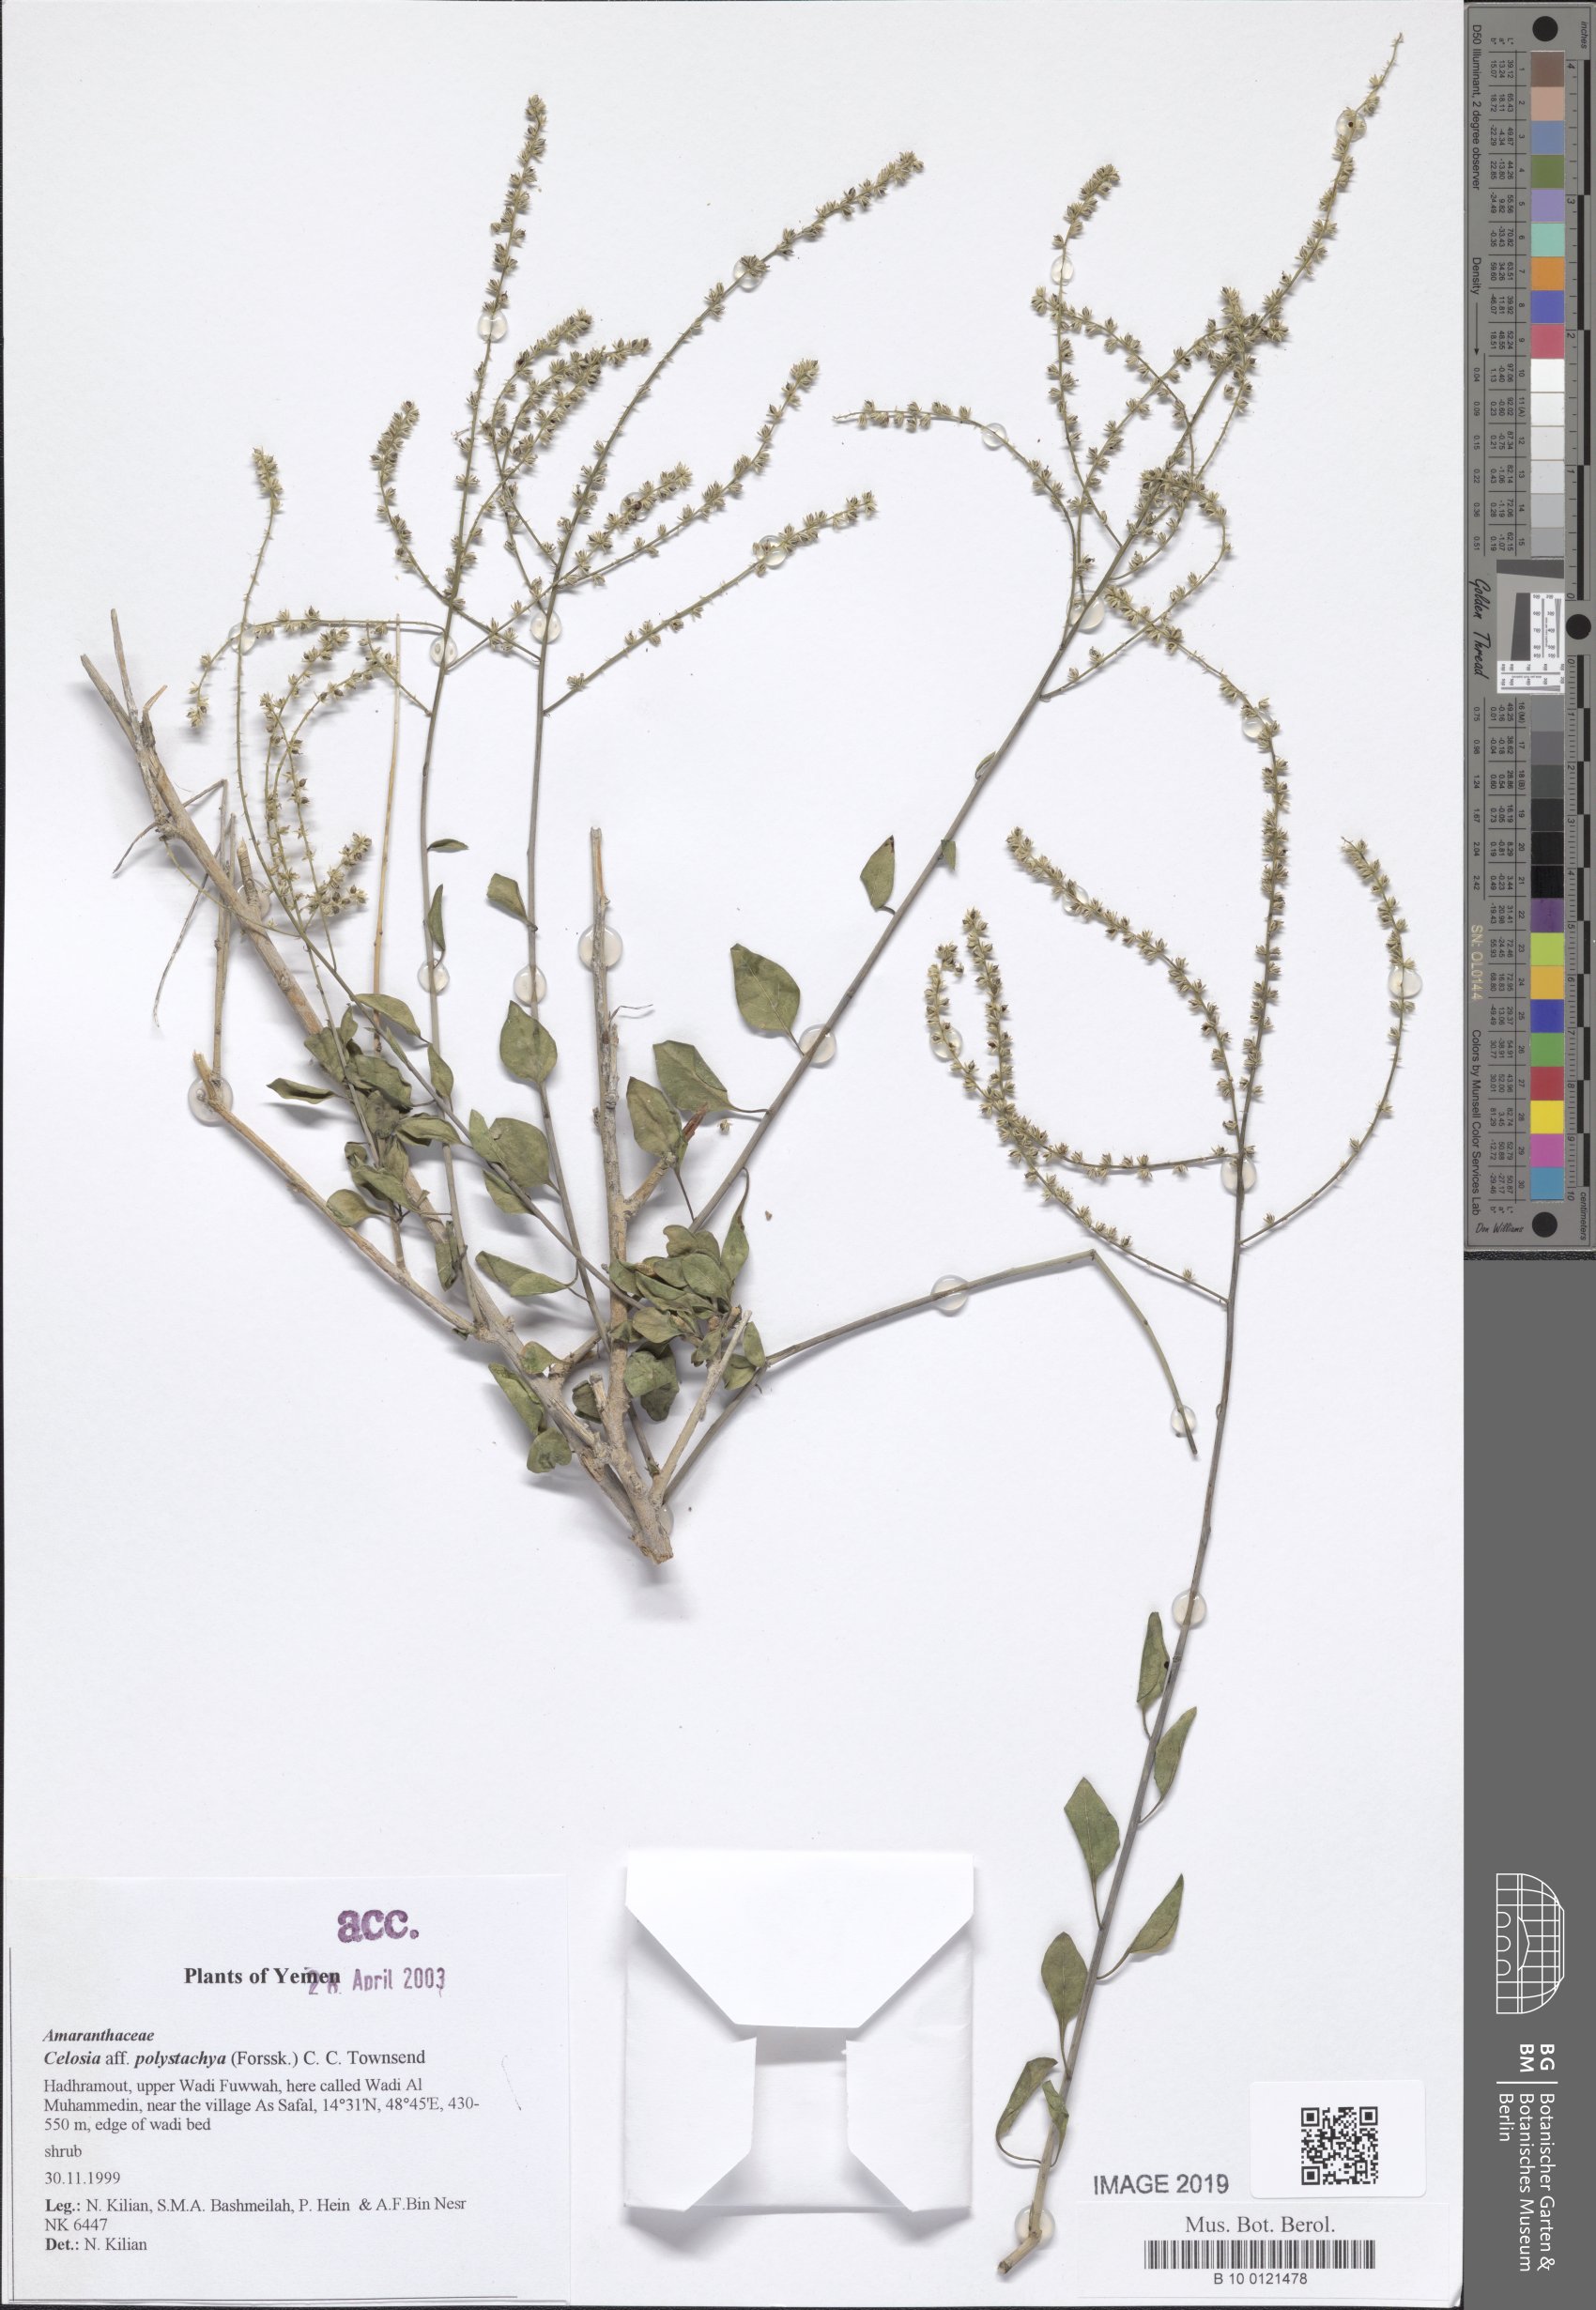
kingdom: Plantae
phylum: Tracheophyta
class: Magnoliopsida
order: Caryophyllales
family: Amaranthaceae
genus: Celosia
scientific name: Celosia polystachya
